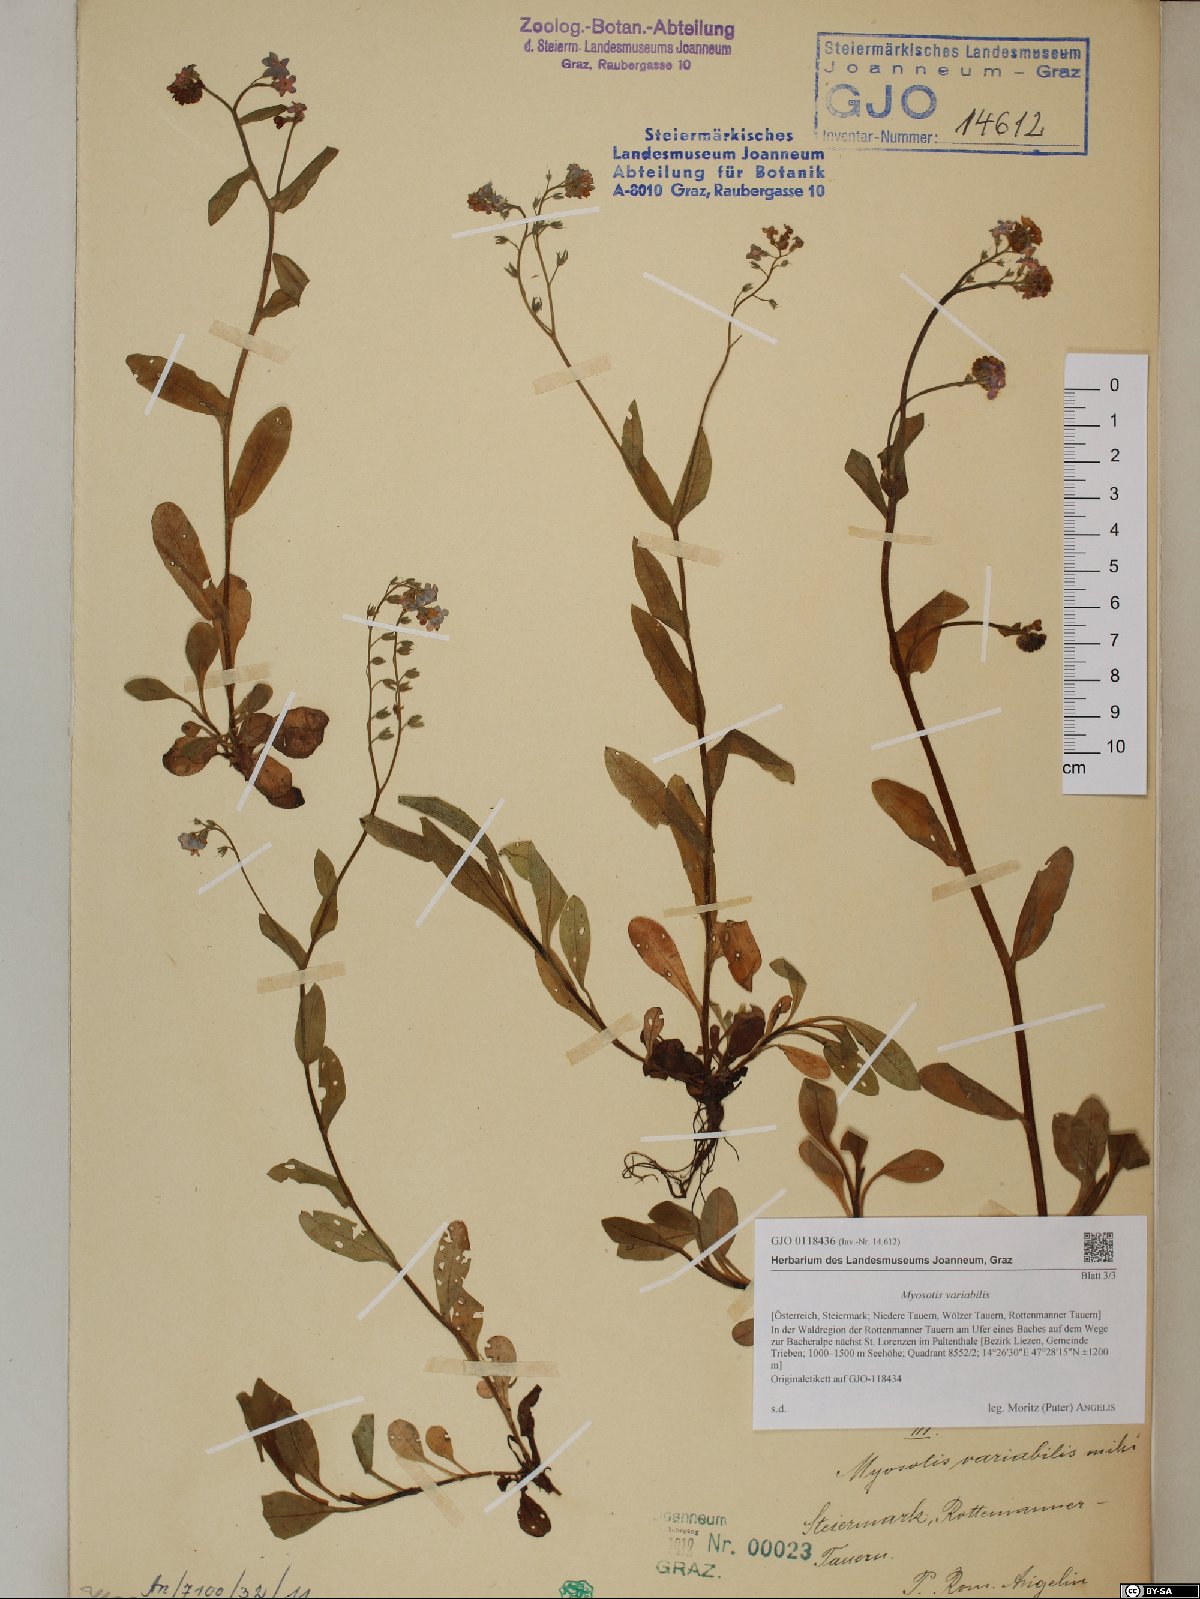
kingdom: Plantae
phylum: Tracheophyta
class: Magnoliopsida
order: Boraginales
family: Boraginaceae
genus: Myosotis
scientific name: Myosotis decumbens
